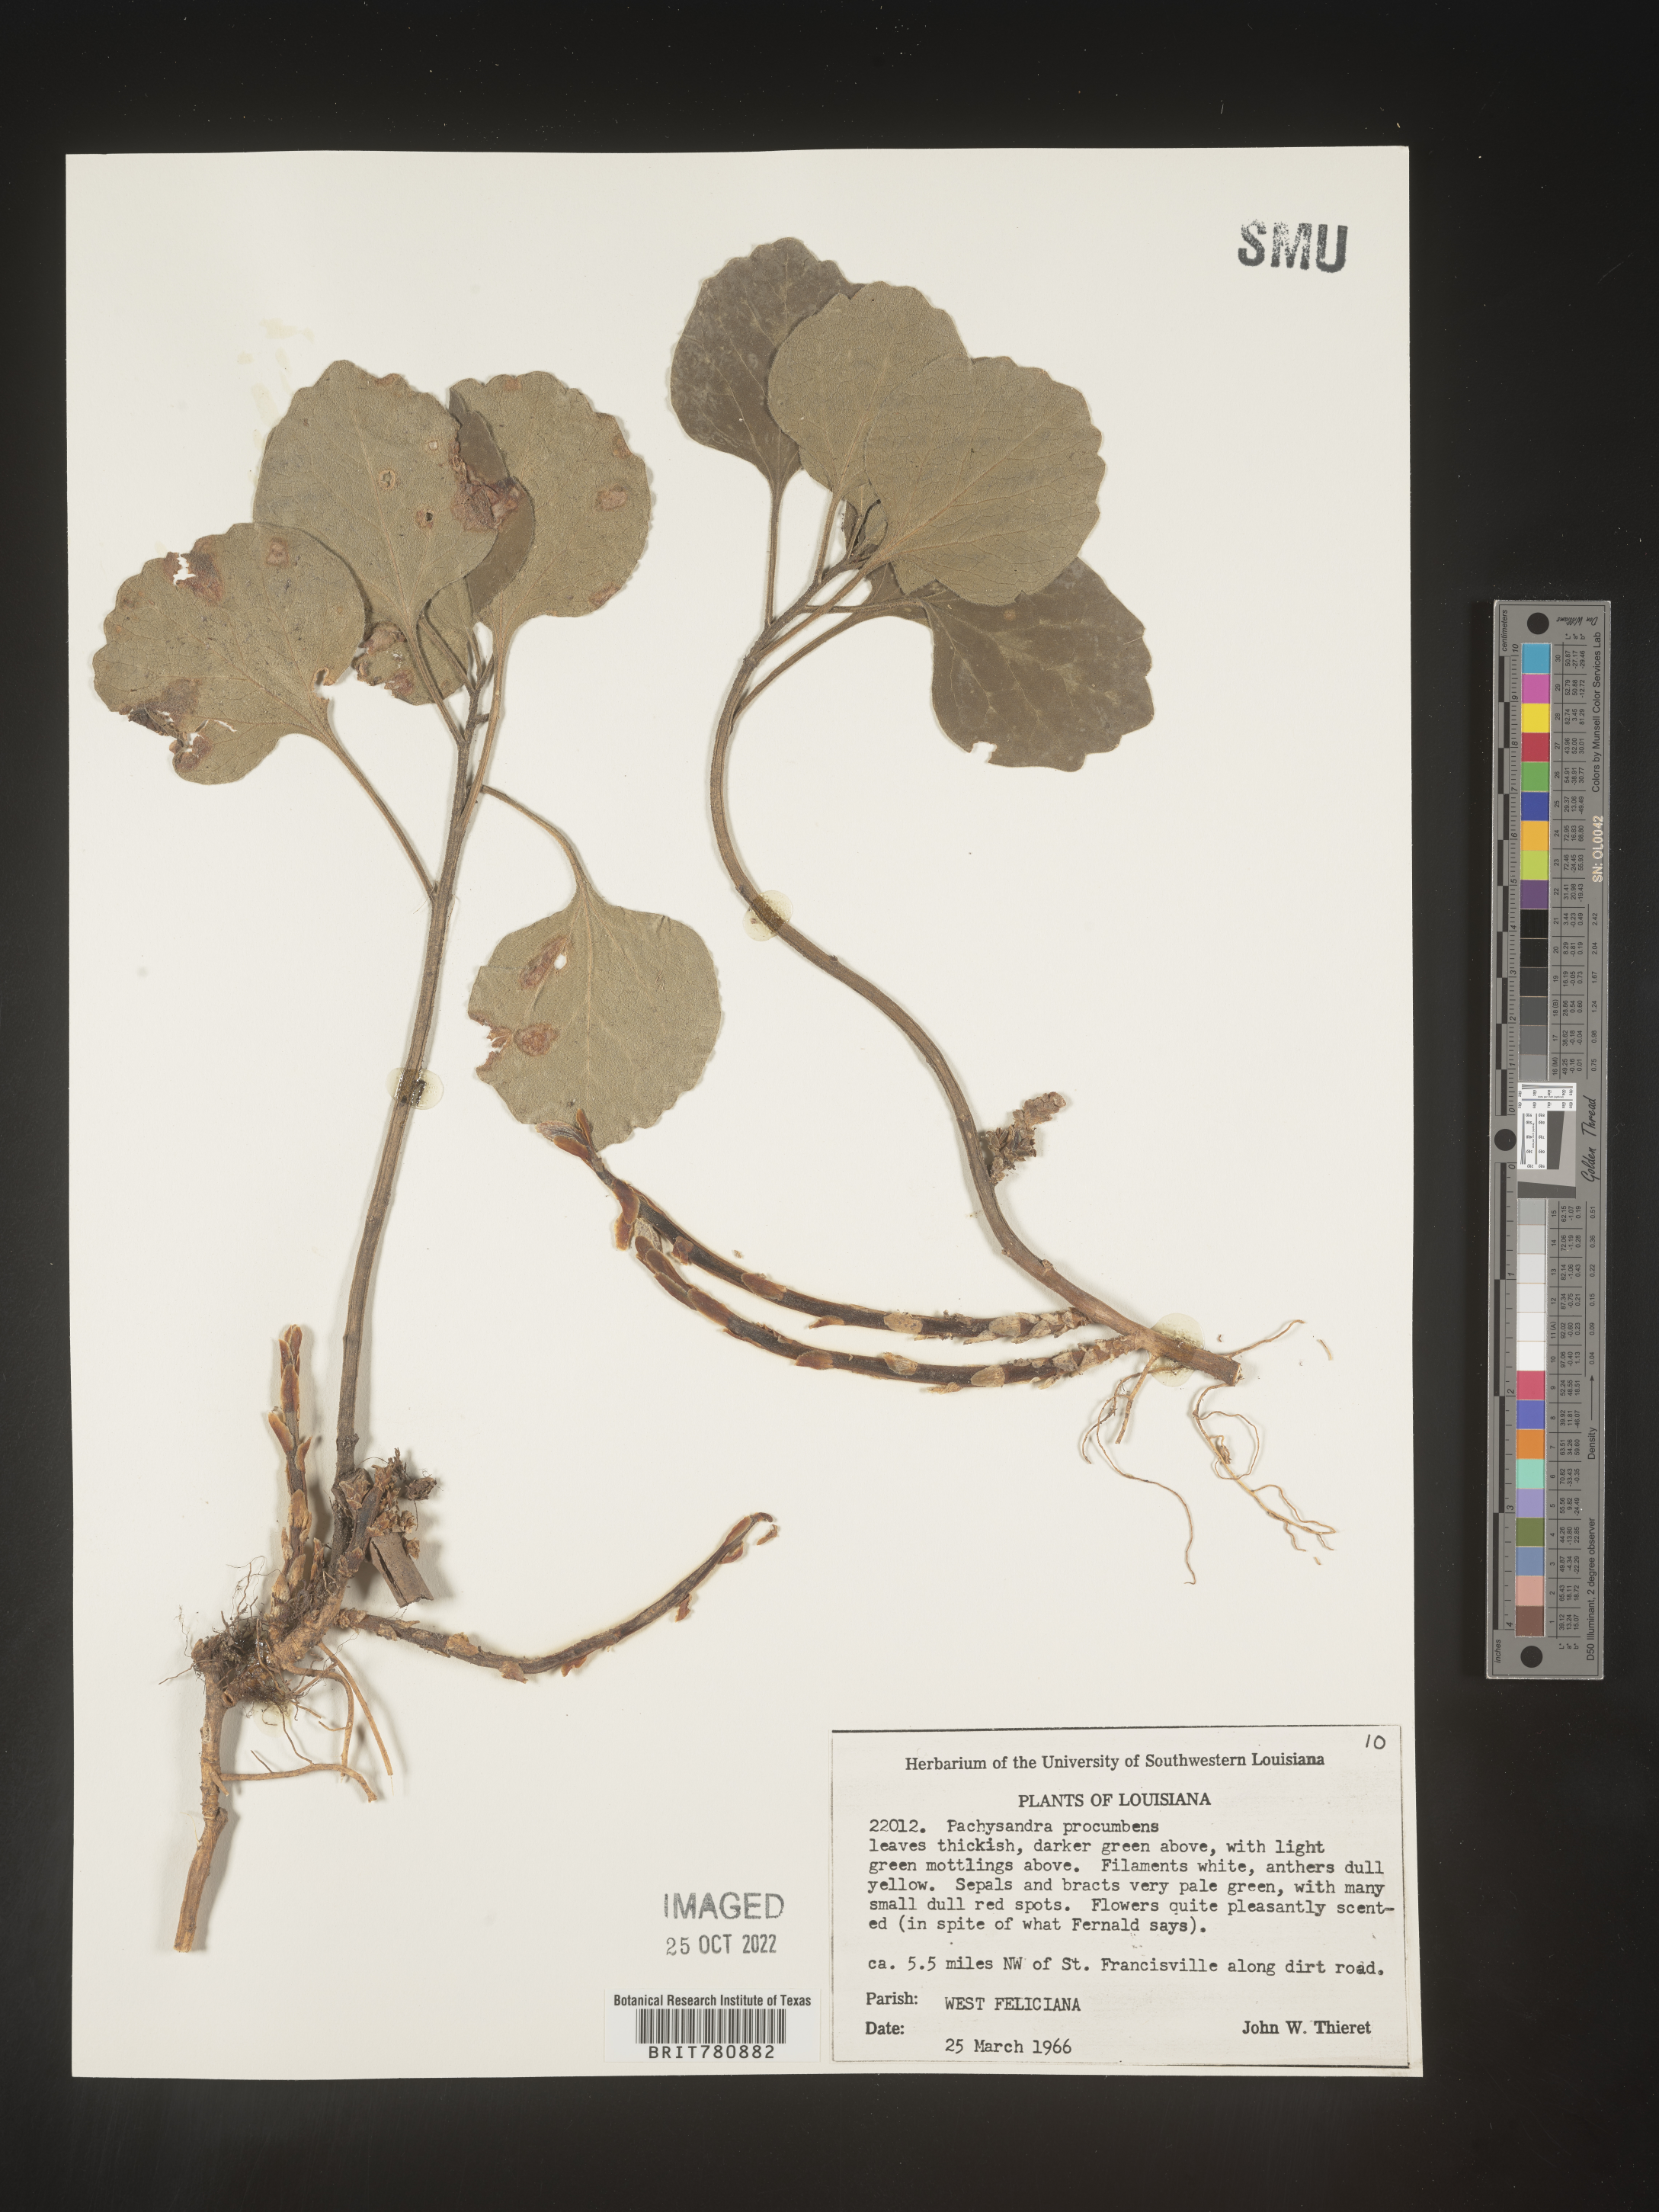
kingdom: Plantae
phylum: Tracheophyta
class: Magnoliopsida
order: Buxales
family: Buxaceae
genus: Pachysandra
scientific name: Pachysandra
